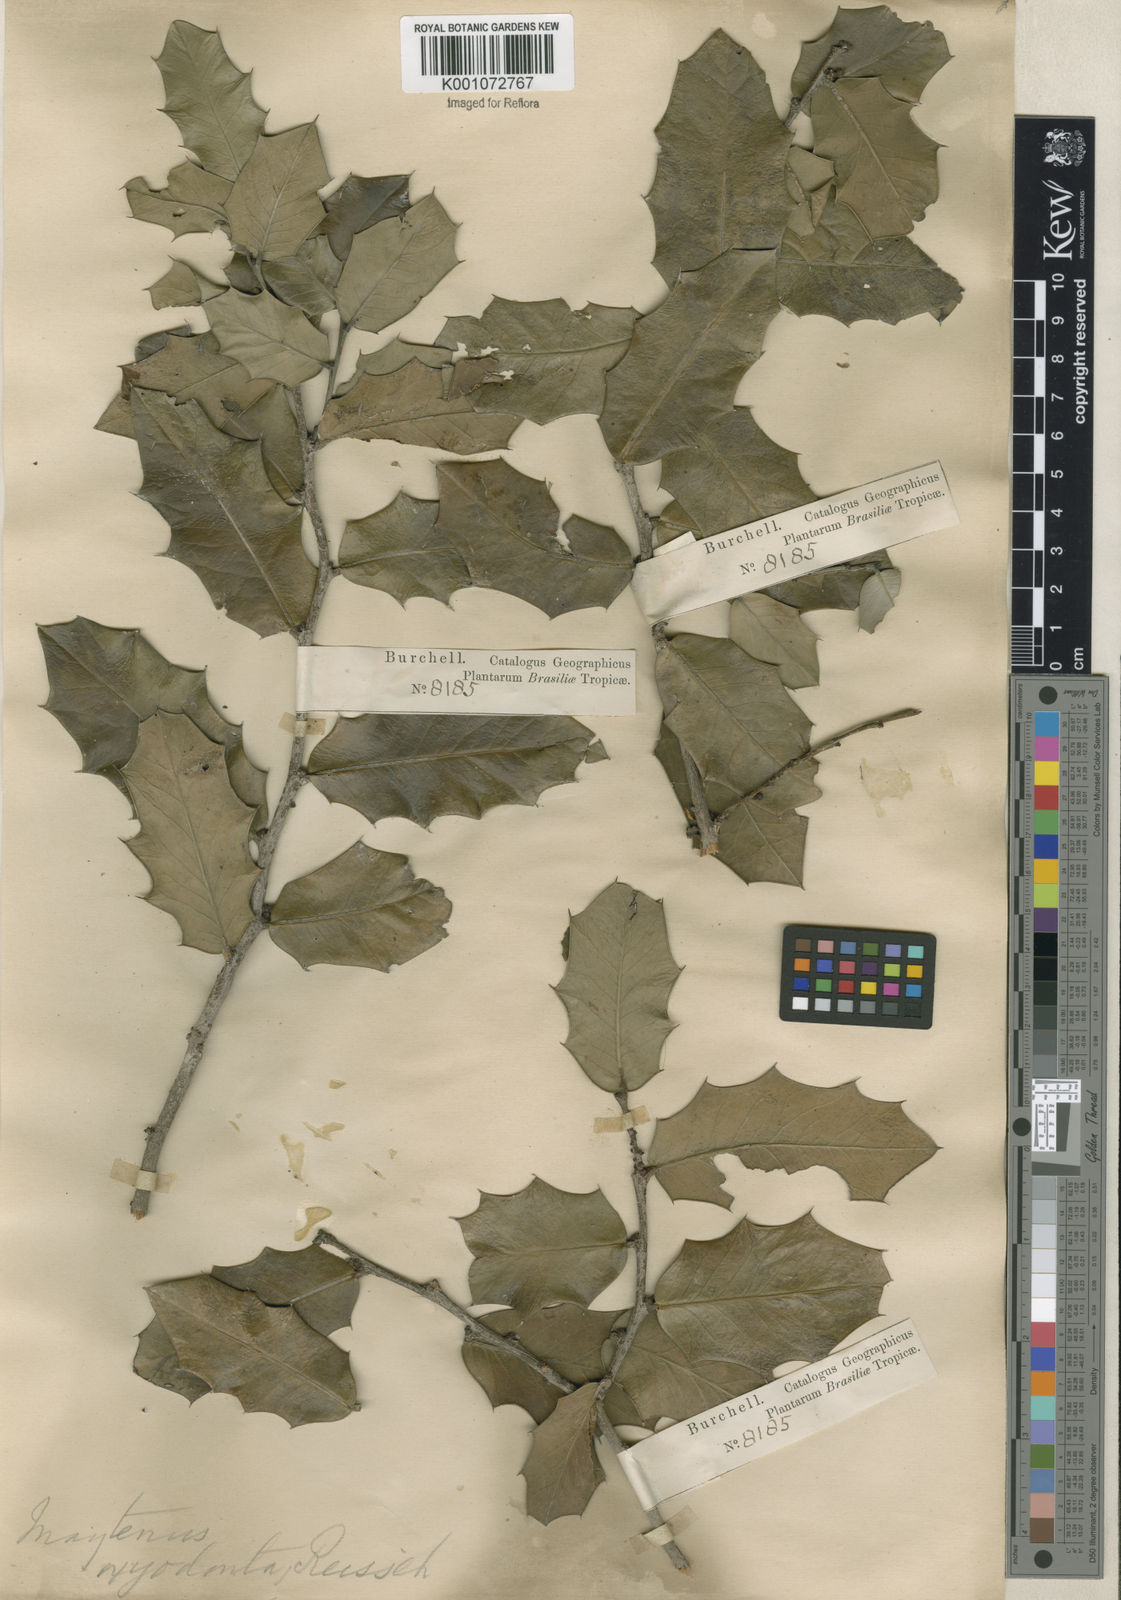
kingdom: Plantae
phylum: Tracheophyta
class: Magnoliopsida
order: Celastrales
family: Celastraceae
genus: Monteverdia
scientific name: Monteverdia aquifolium
